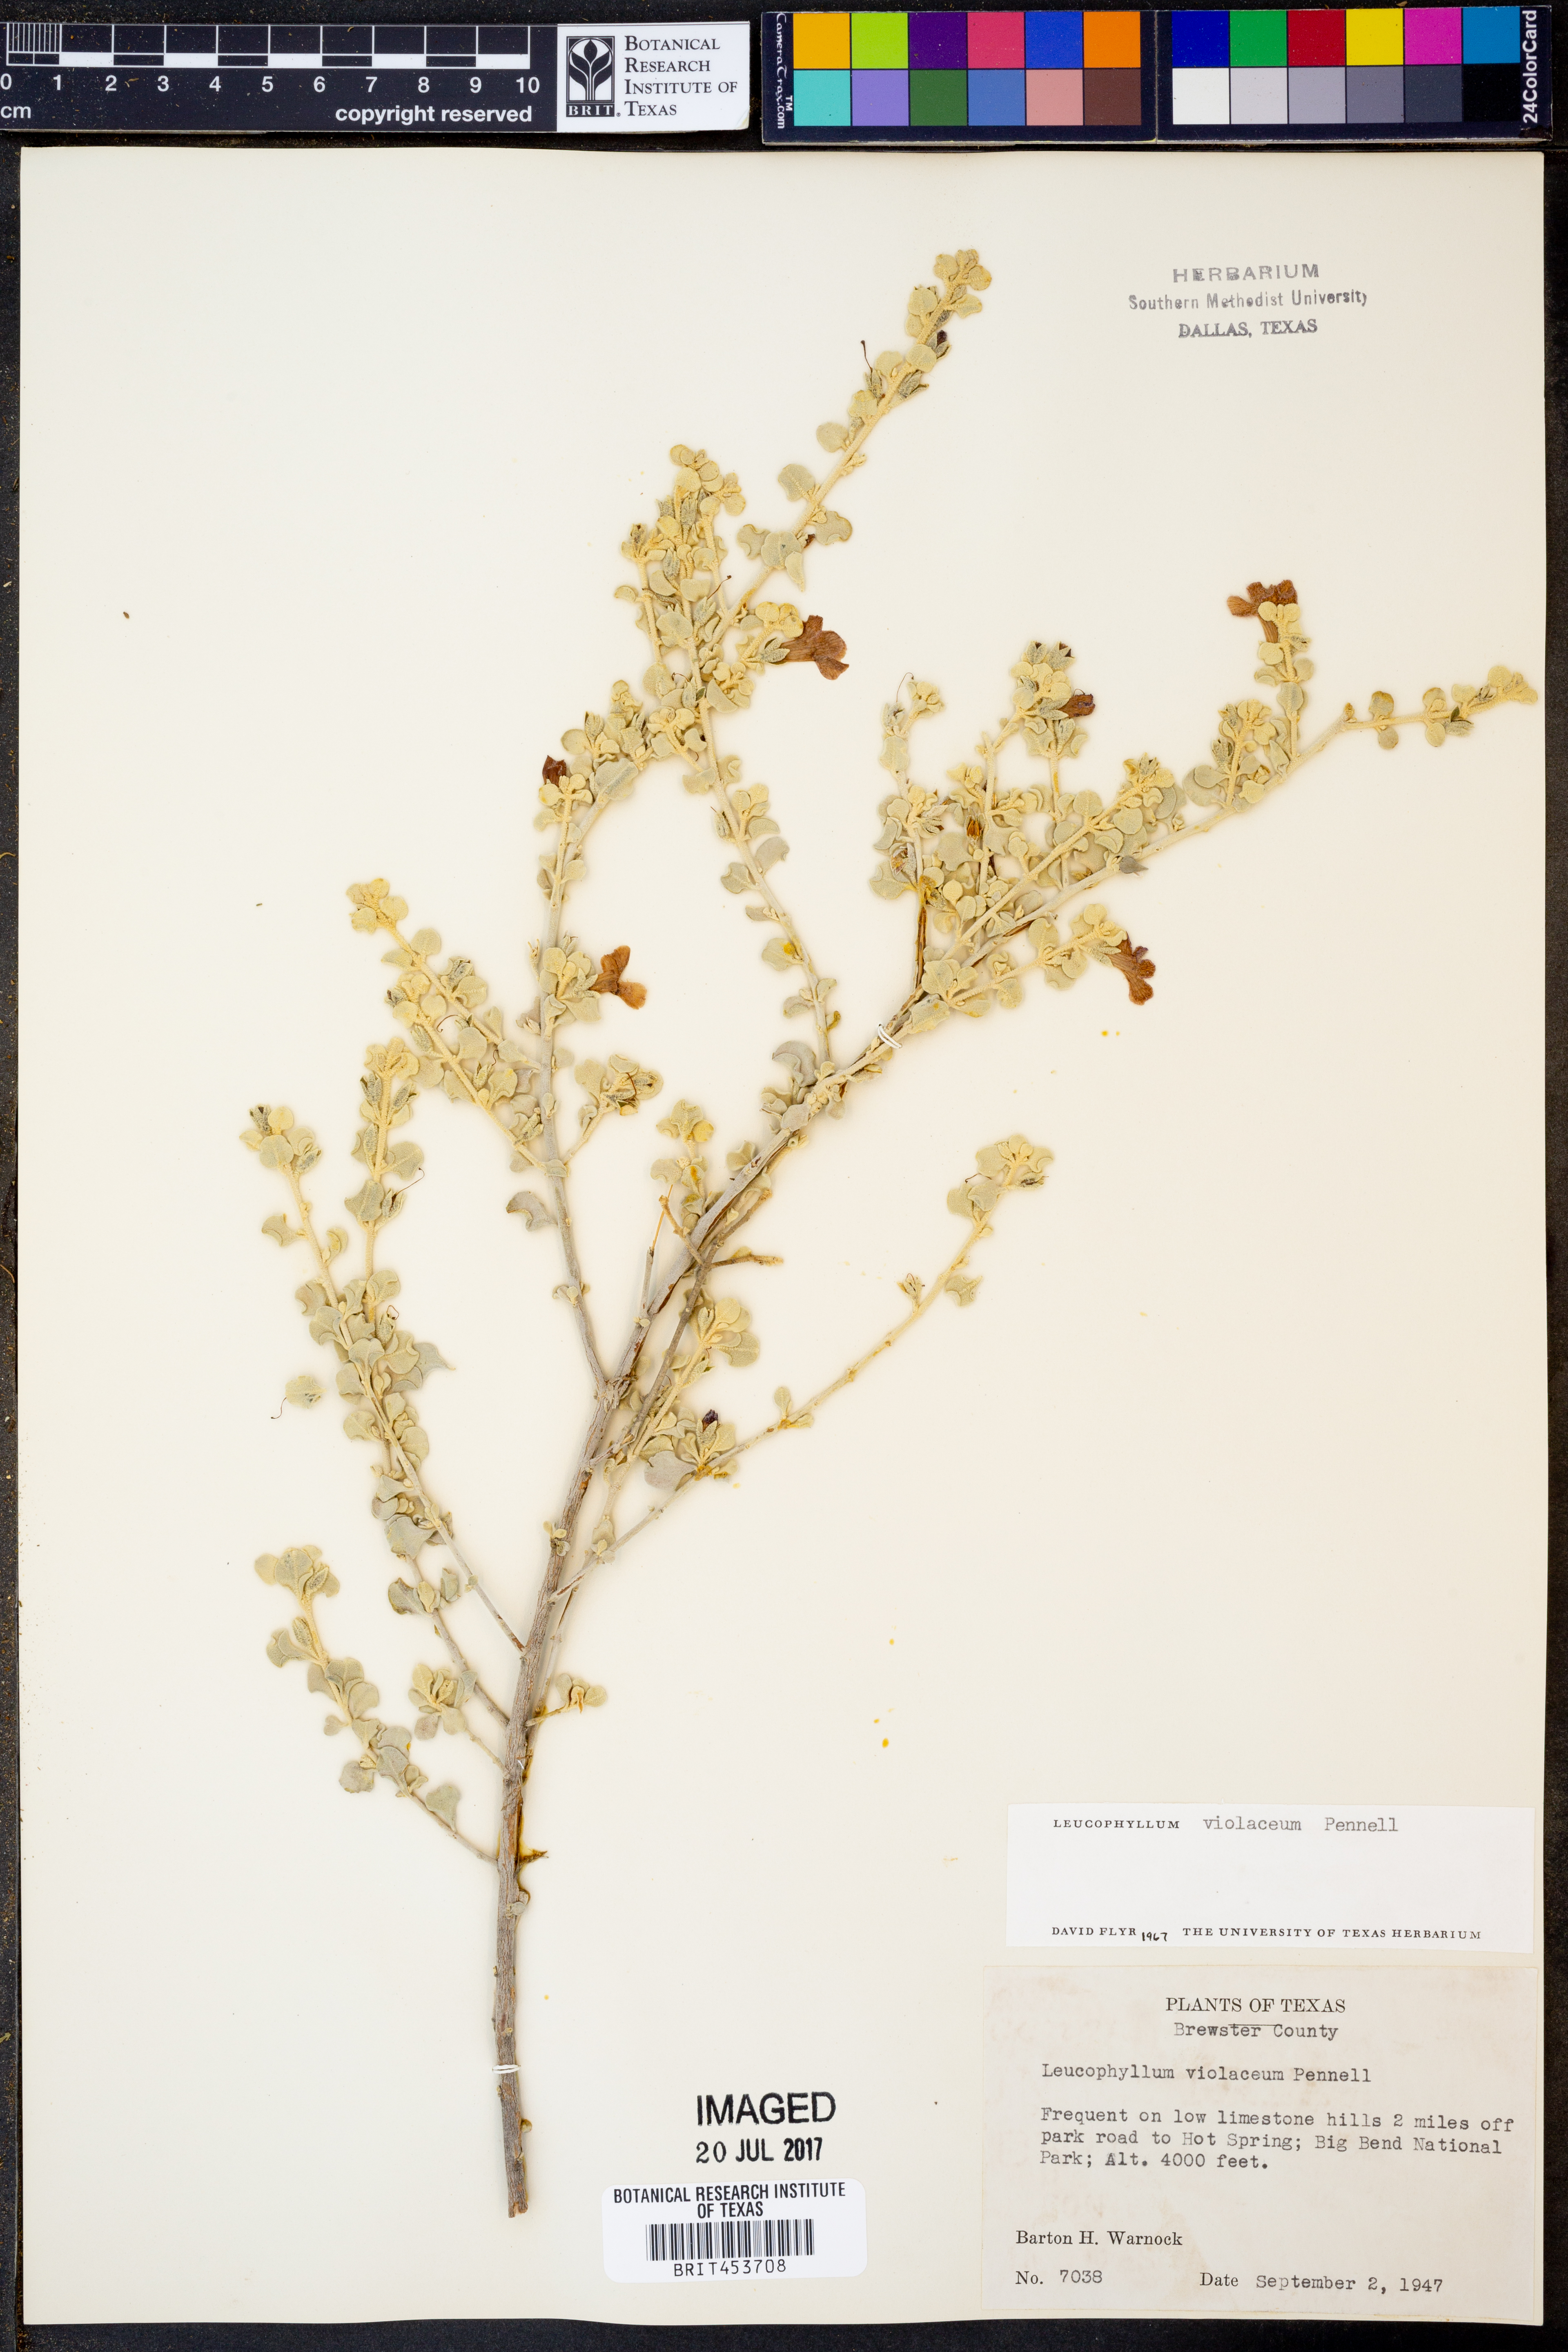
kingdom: Plantae
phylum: Tracheophyta
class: Magnoliopsida
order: Lamiales
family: Scrophulariaceae
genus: Leucophyllum
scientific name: Leucophyllum candidum
